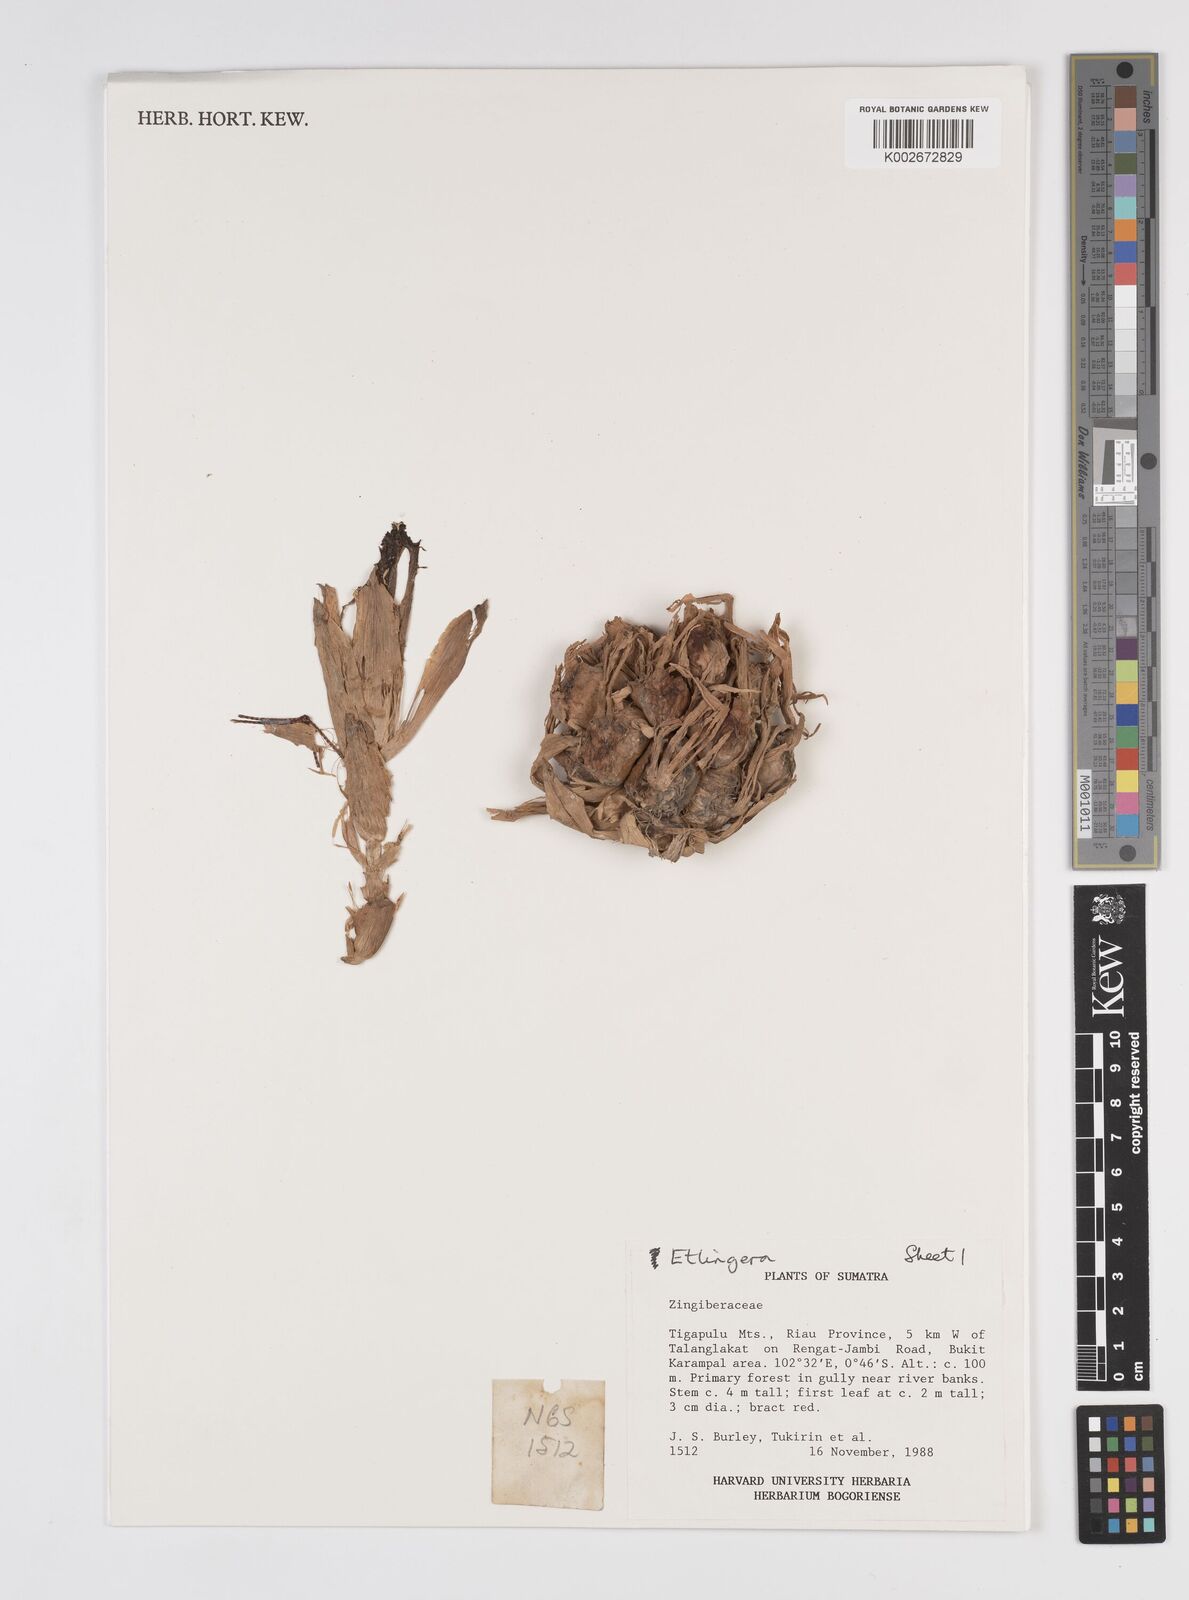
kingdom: Plantae
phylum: Tracheophyta
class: Liliopsida
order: Zingiberales
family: Zingiberaceae
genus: Etlingera
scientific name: Etlingera
